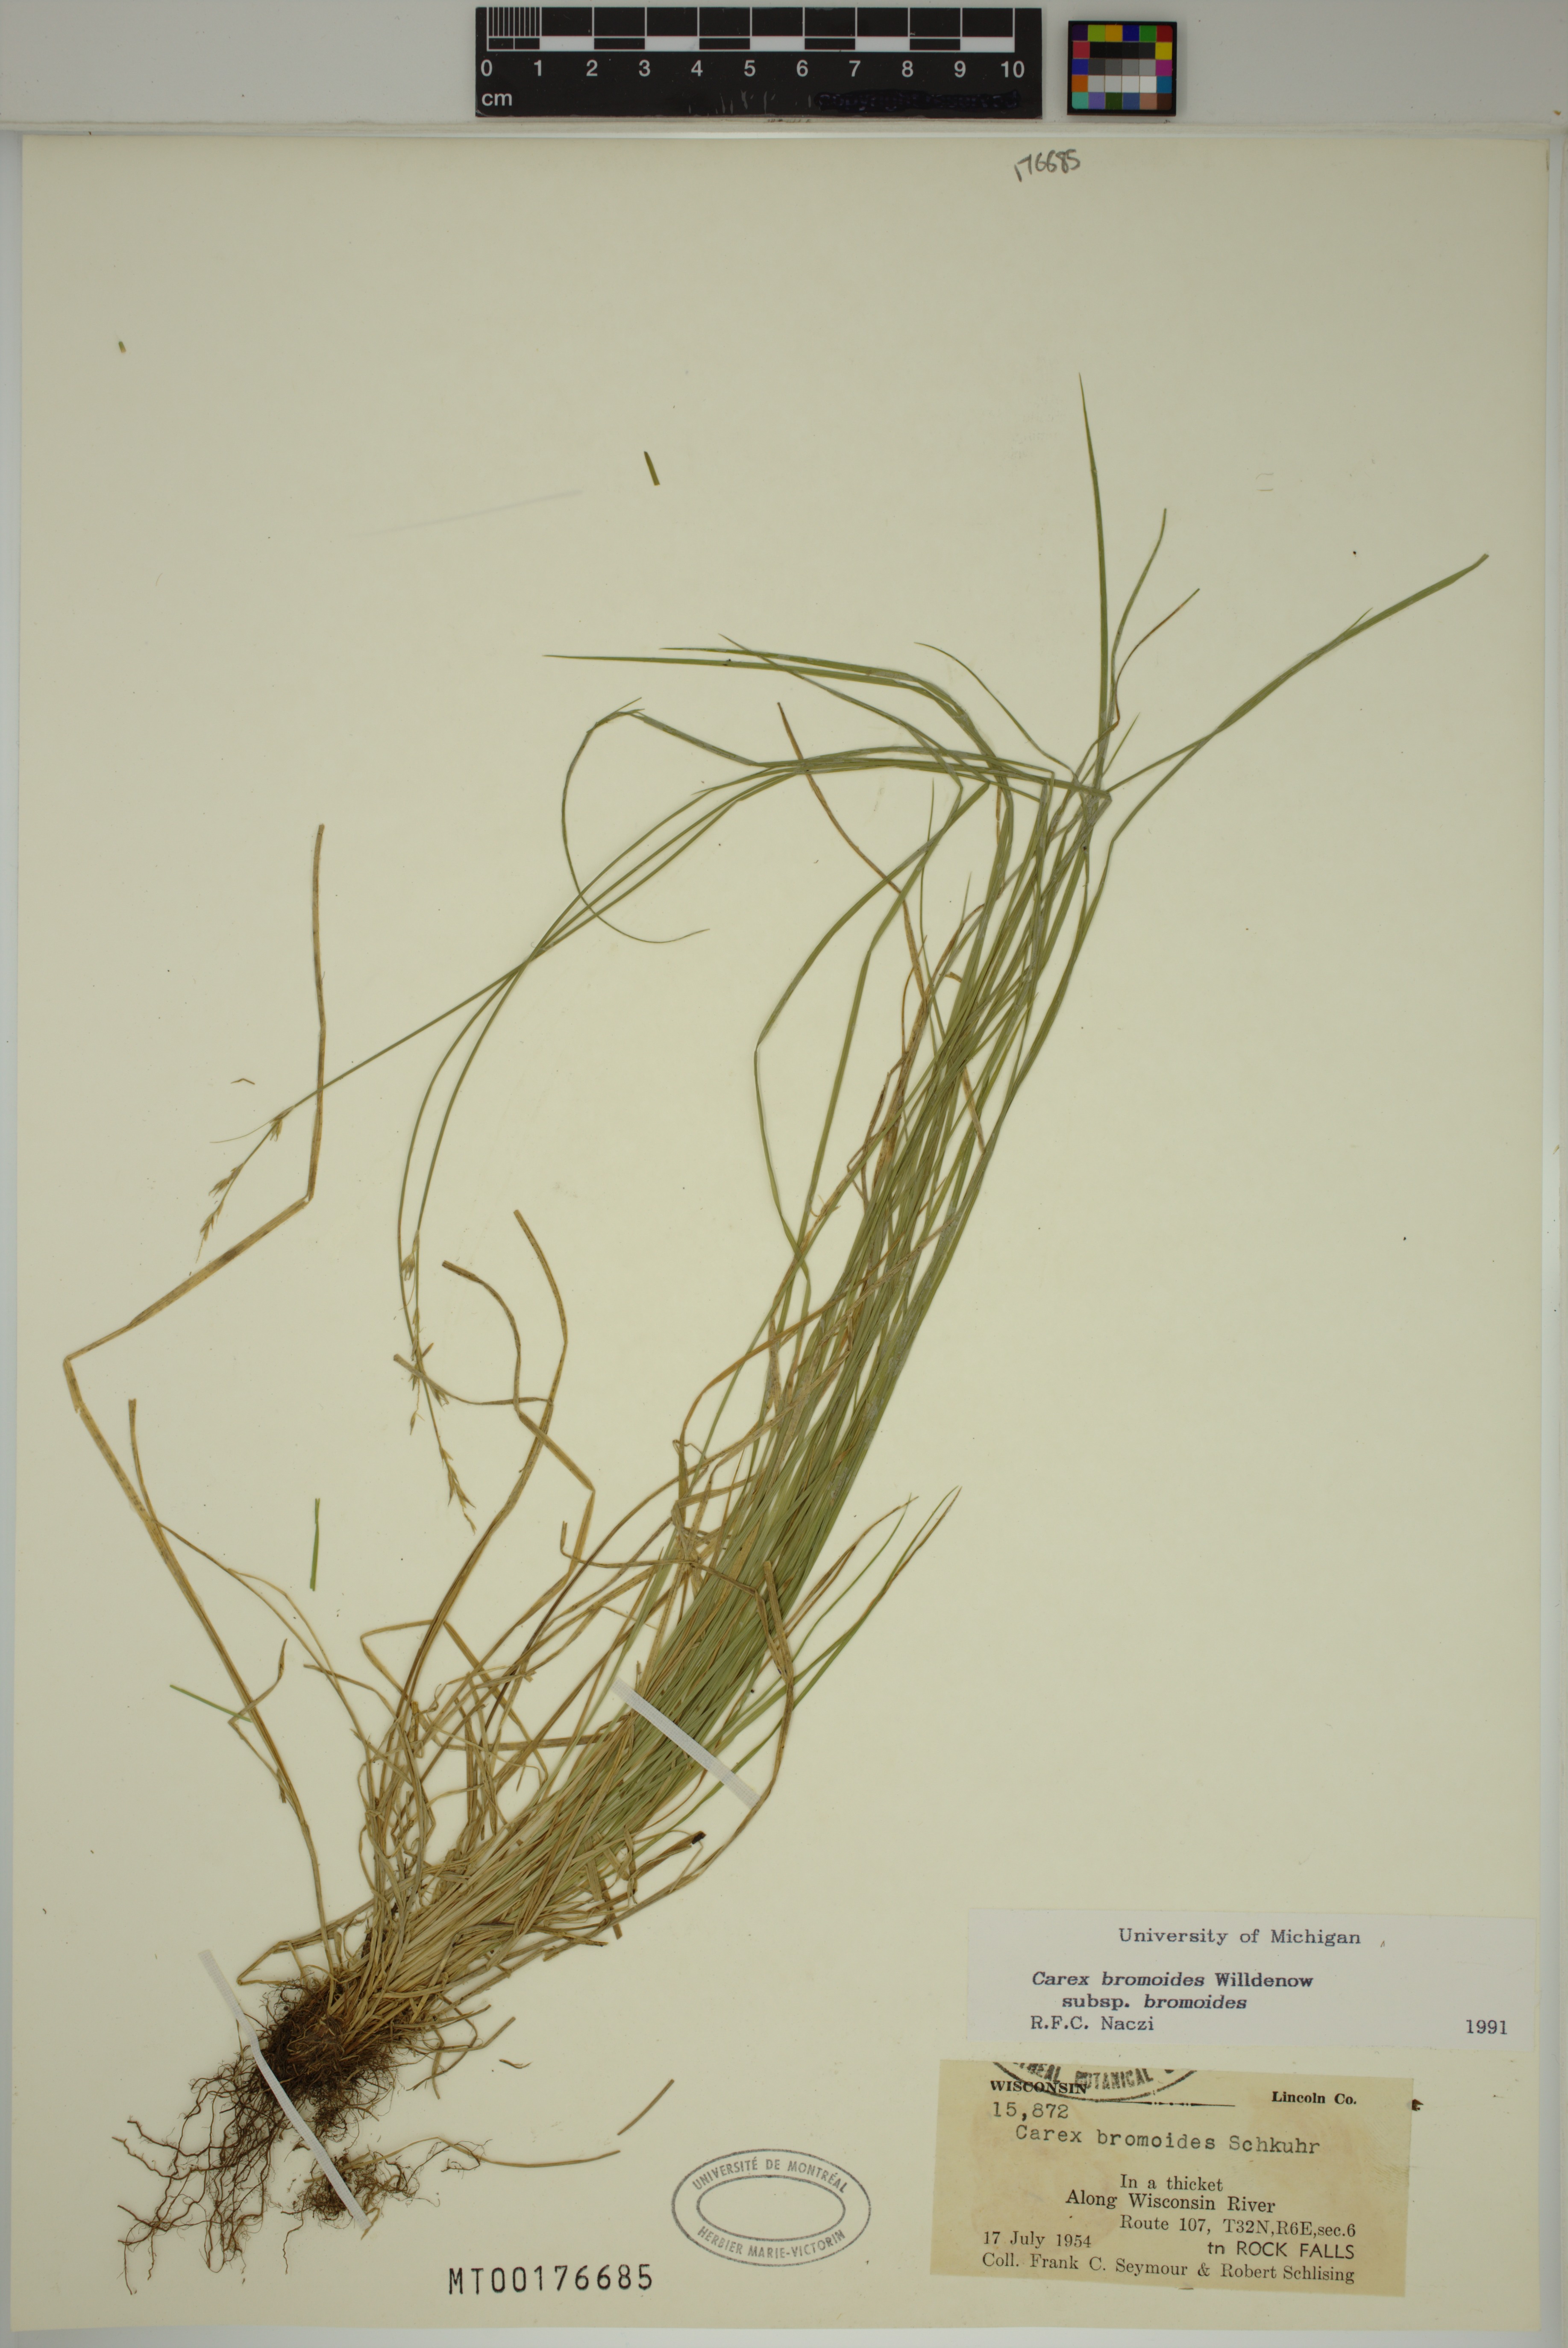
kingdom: Plantae
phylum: Tracheophyta
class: Liliopsida
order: Poales
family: Cyperaceae
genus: Carex
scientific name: Carex bromoides
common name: Brome hummock sedge
